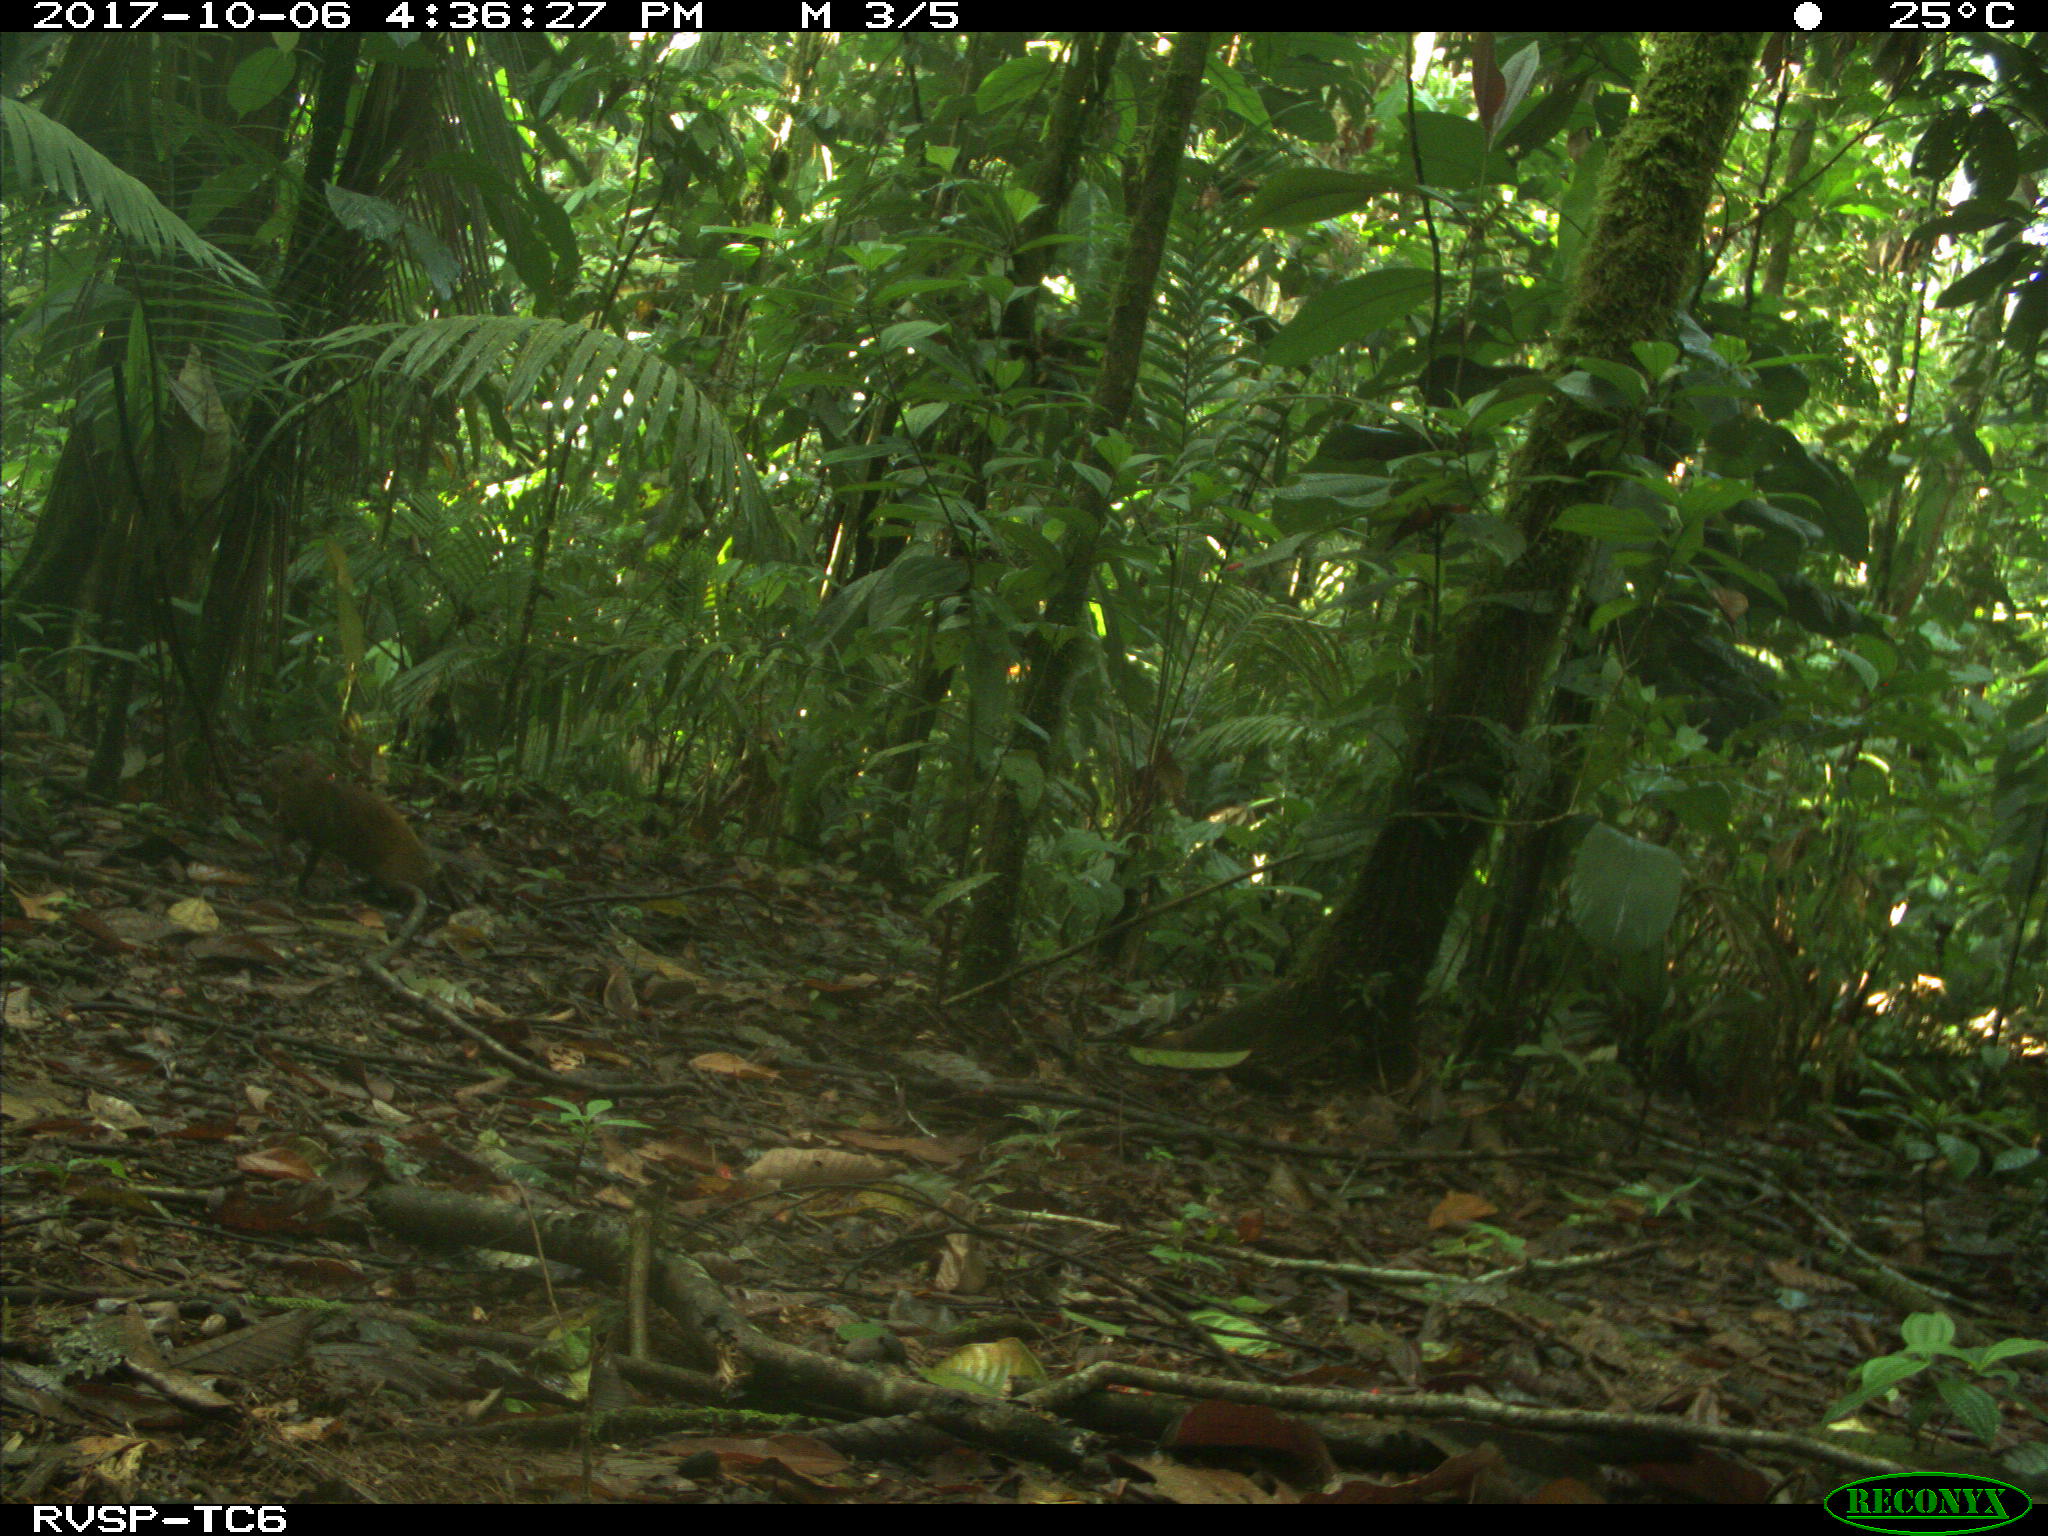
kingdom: Animalia
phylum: Chordata
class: Mammalia
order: Rodentia
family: Dasyproctidae
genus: Dasyprocta
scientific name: Dasyprocta punctata
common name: Central american agouti
